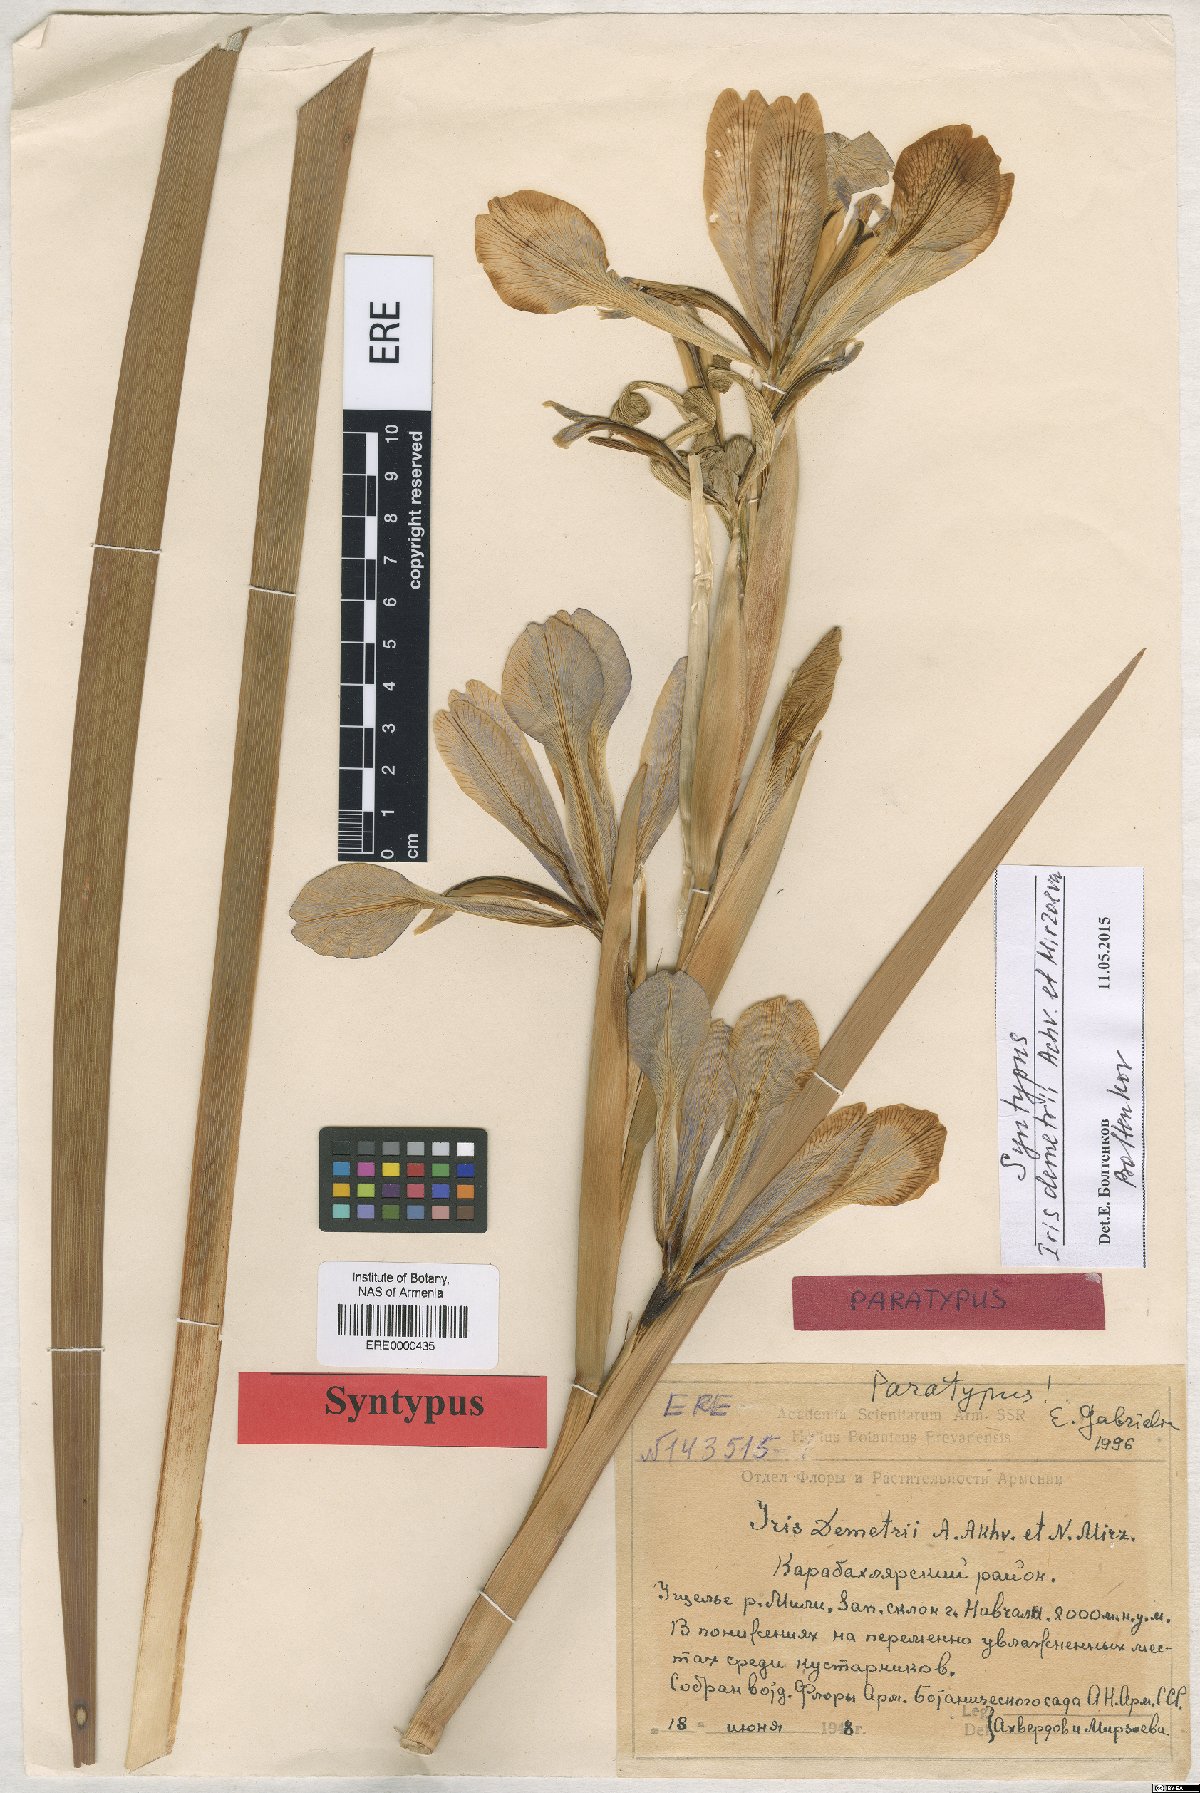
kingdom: Plantae
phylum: Tracheophyta
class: Liliopsida
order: Asparagales
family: Iridaceae
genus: Iris
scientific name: Iris spuria
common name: Blue iris
